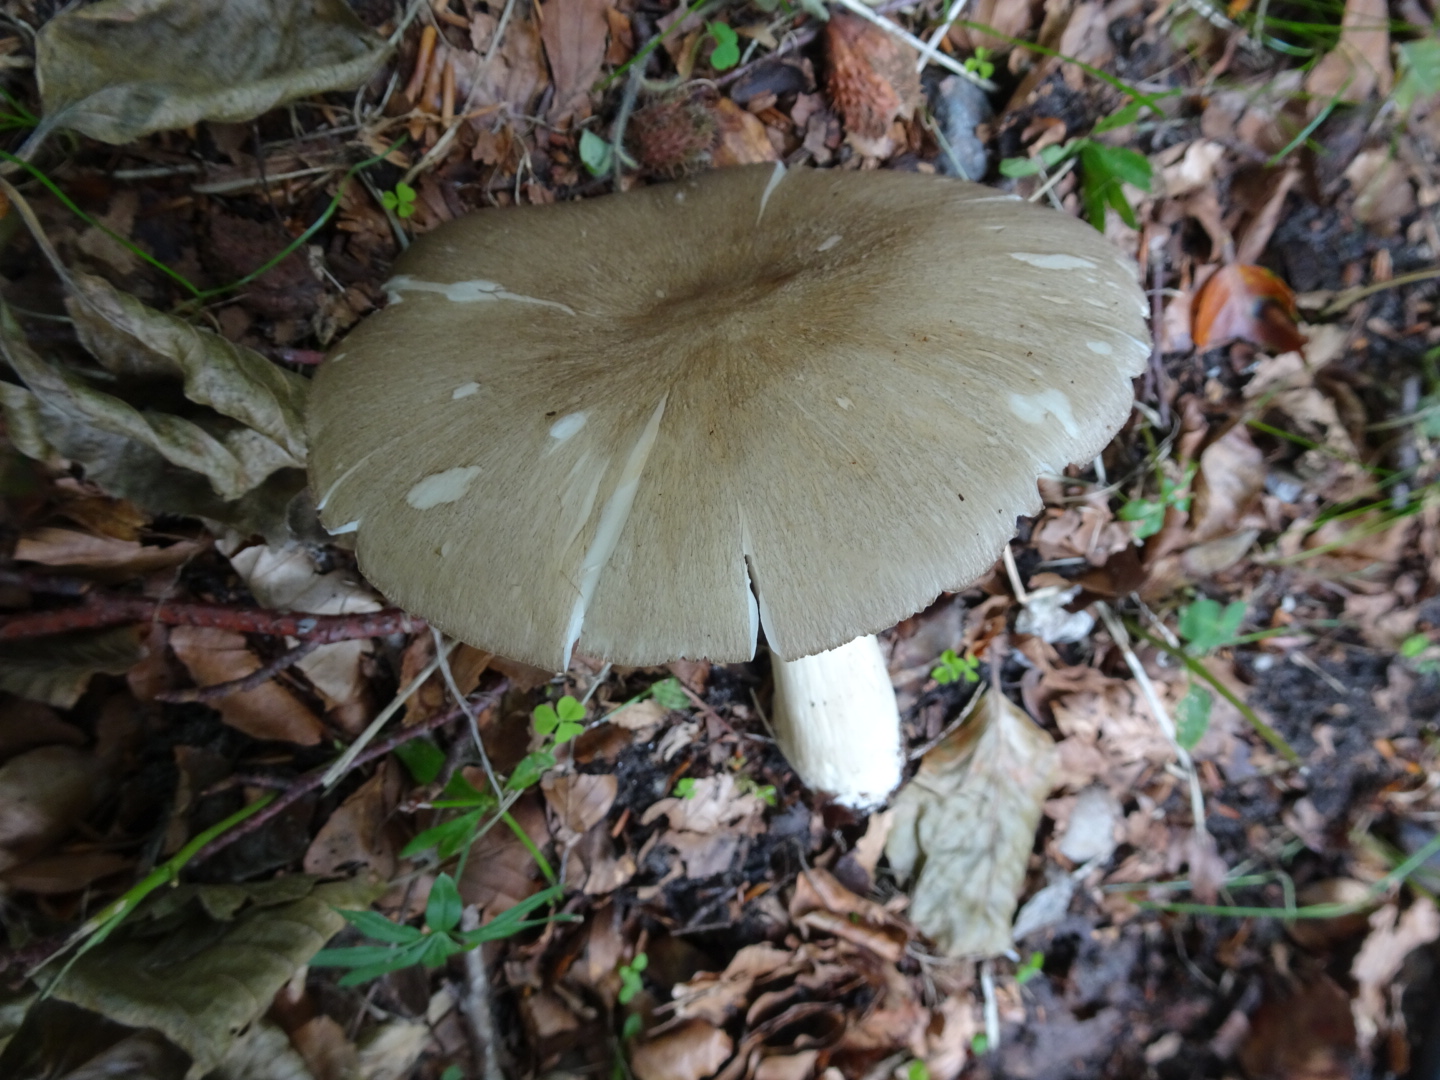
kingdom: Fungi
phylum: Basidiomycota
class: Agaricomycetes
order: Agaricales
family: Tricholomataceae
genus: Megacollybia
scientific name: Megacollybia platyphylla
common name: bredbladet væbnerhat
